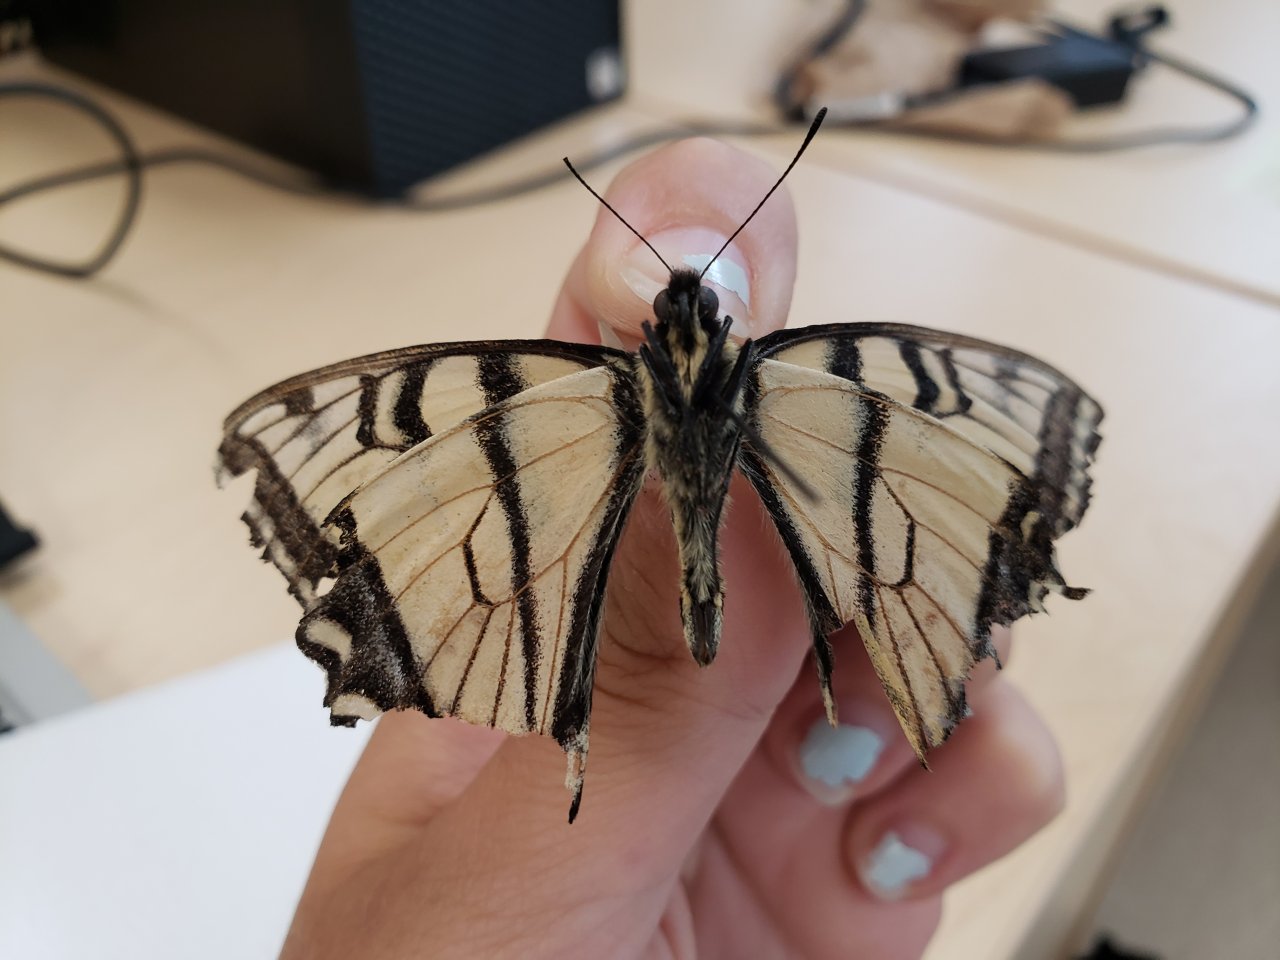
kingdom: Animalia
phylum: Arthropoda
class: Insecta
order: Lepidoptera
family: Papilionidae
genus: Pterourus
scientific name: Pterourus canadensis
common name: Canadian Tiger Swallowtail
